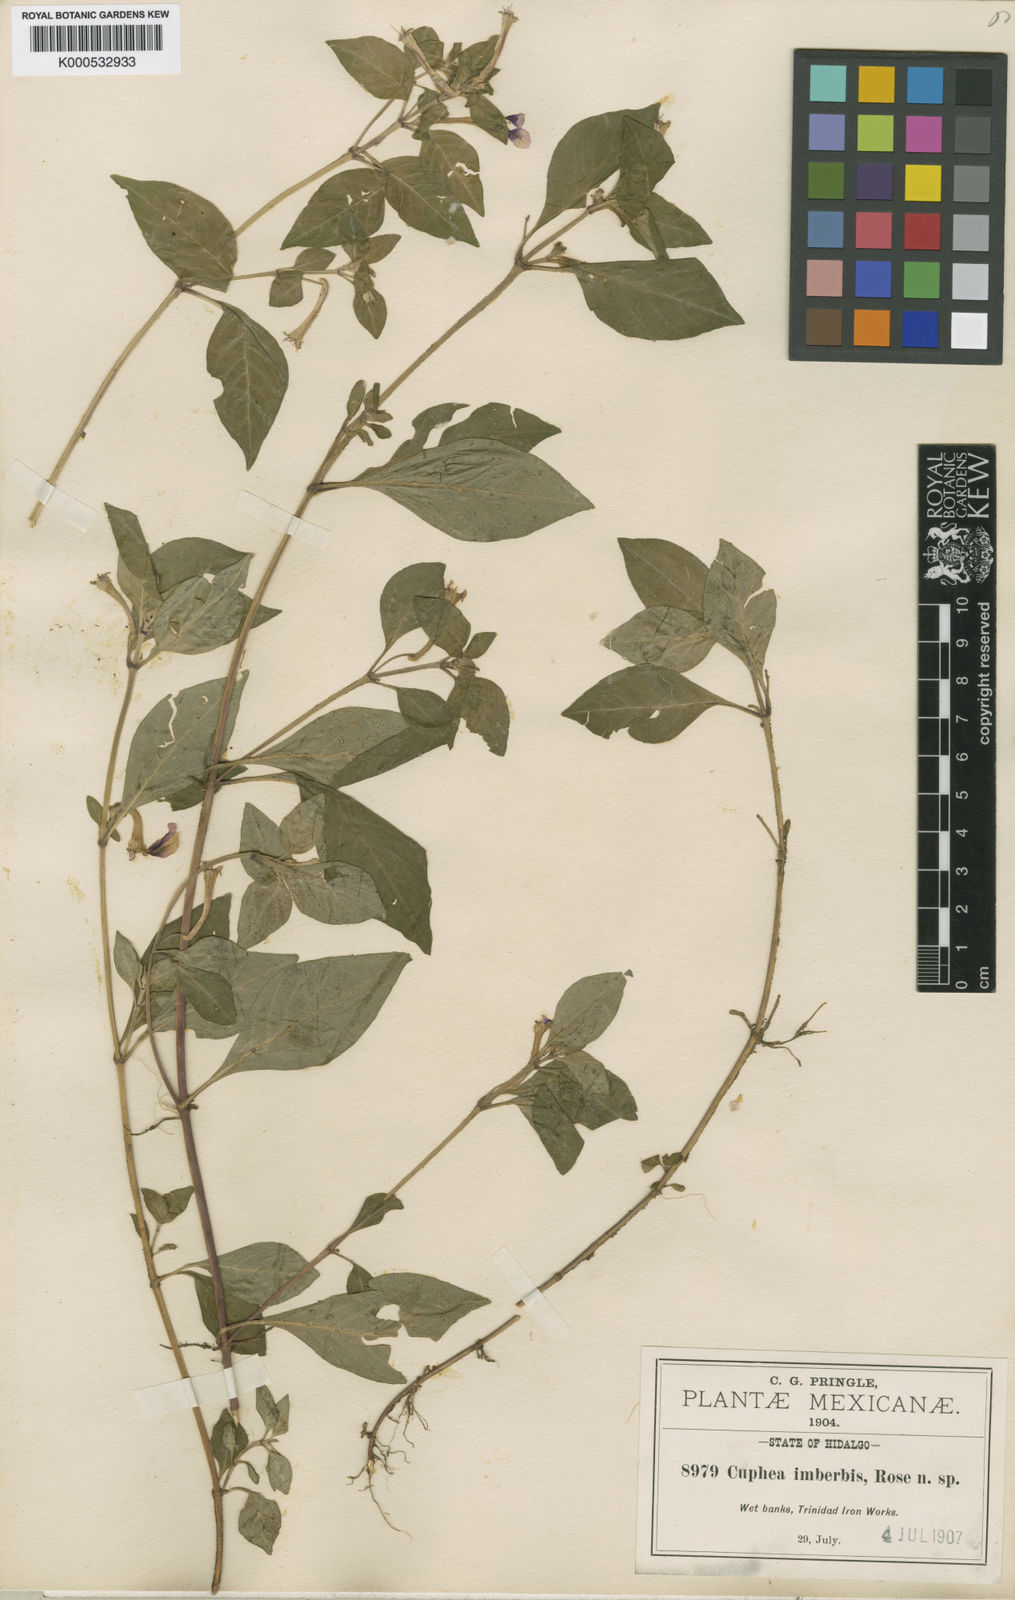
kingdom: Plantae
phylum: Tracheophyta
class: Magnoliopsida
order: Myrtales
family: Lythraceae
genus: Cuphea
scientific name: Cuphea
